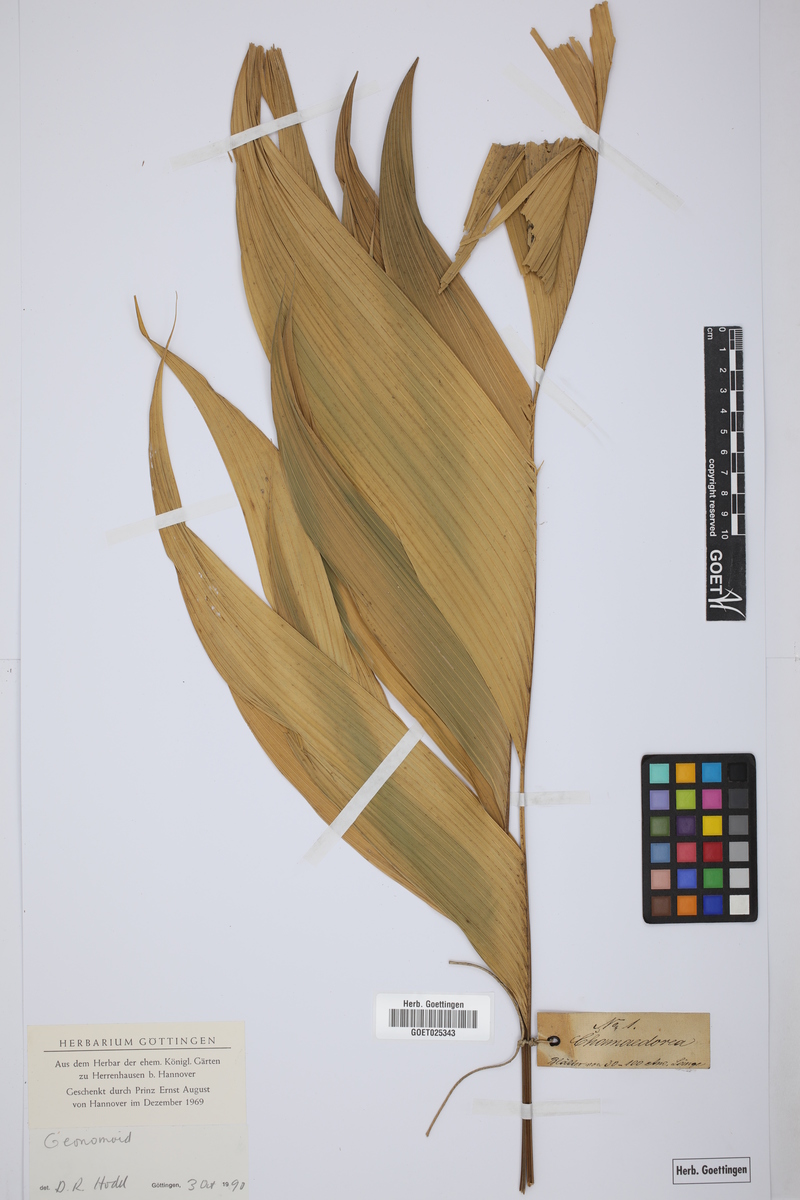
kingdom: Plantae
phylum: Tracheophyta
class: Liliopsida
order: Arecales
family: Arecaceae
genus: Chamaedorea
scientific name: Chamaedorea pinnatifrons
